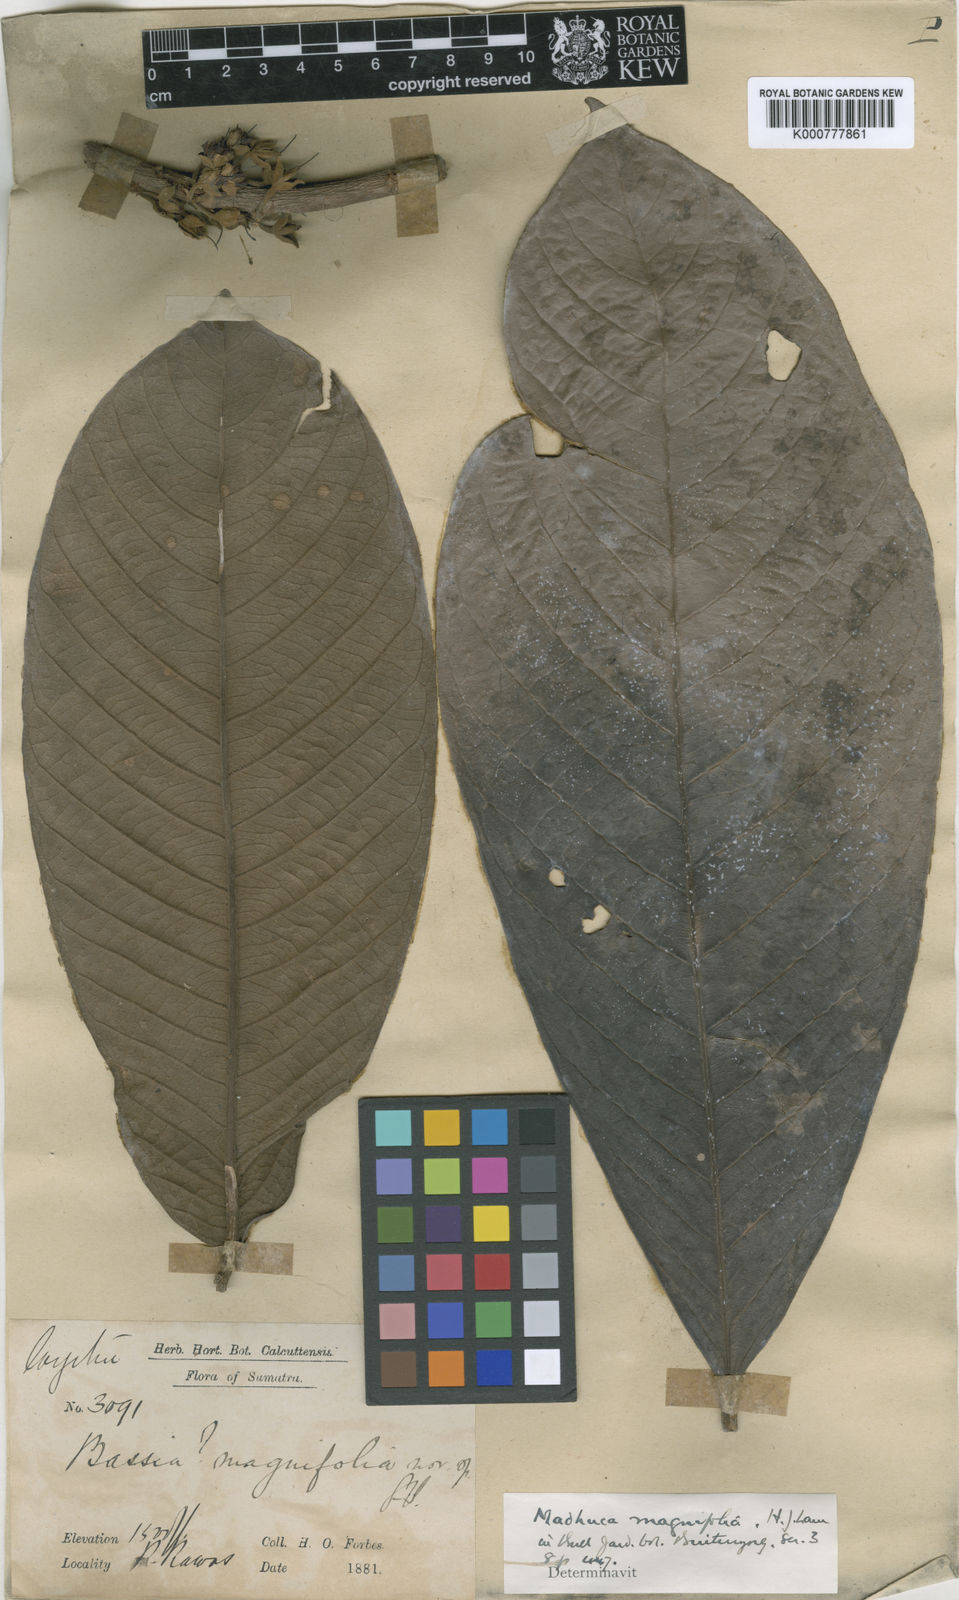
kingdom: Plantae
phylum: Tracheophyta
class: Magnoliopsida
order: Ericales
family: Sapotaceae
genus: Madhuca
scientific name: Madhuca magnifolia
